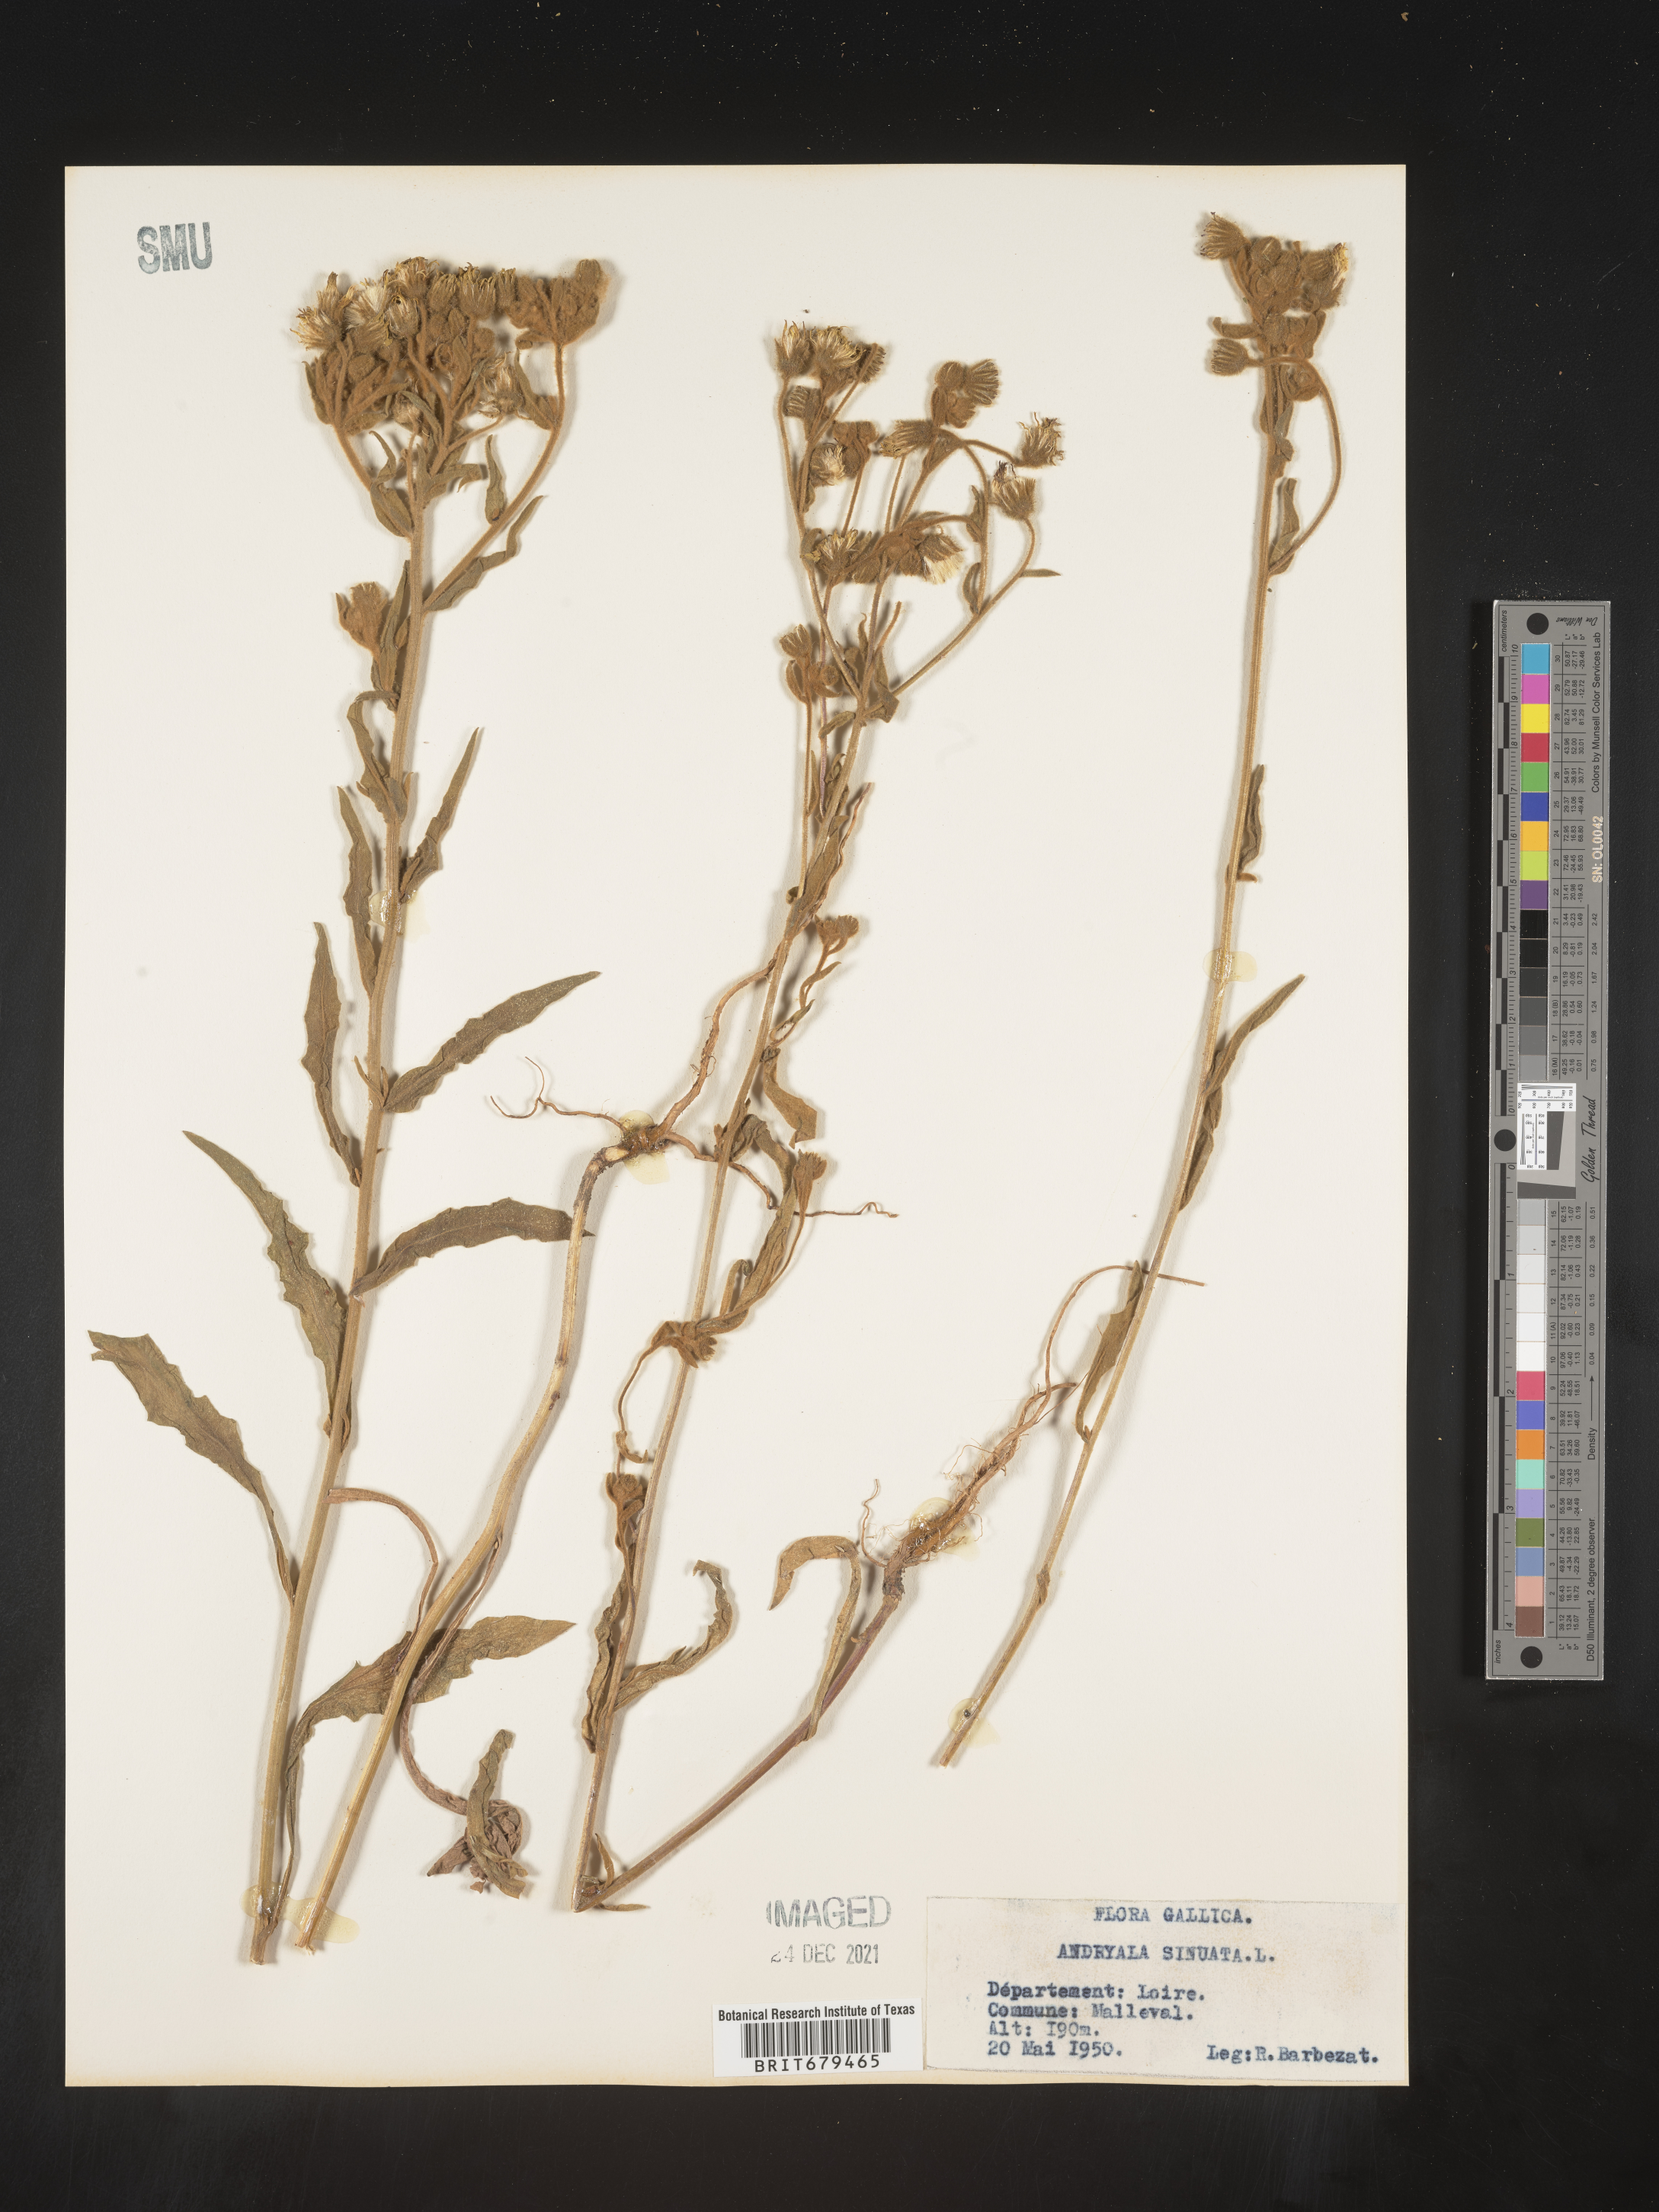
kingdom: Plantae
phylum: Tracheophyta
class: Magnoliopsida
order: Asterales
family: Asteraceae
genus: Andryala
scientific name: Andryala
